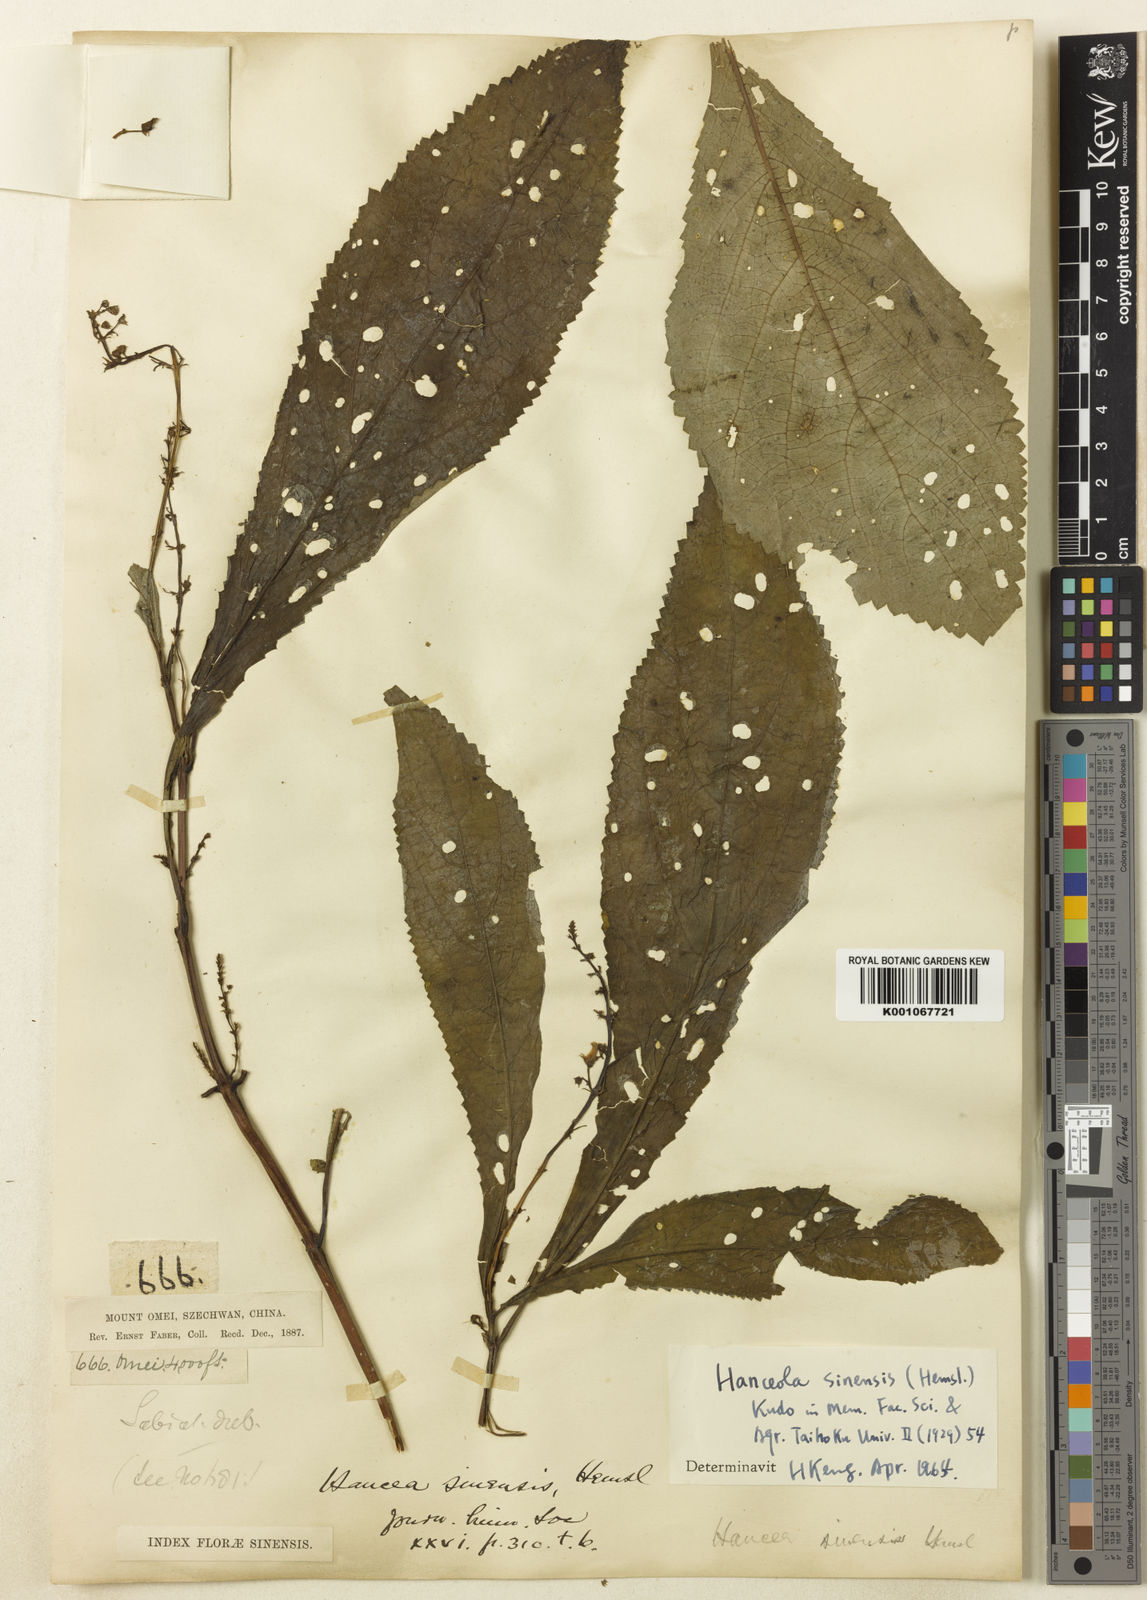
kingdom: Plantae
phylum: Tracheophyta
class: Magnoliopsida
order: Lamiales
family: Lamiaceae
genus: Hanceola
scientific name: Hanceola
